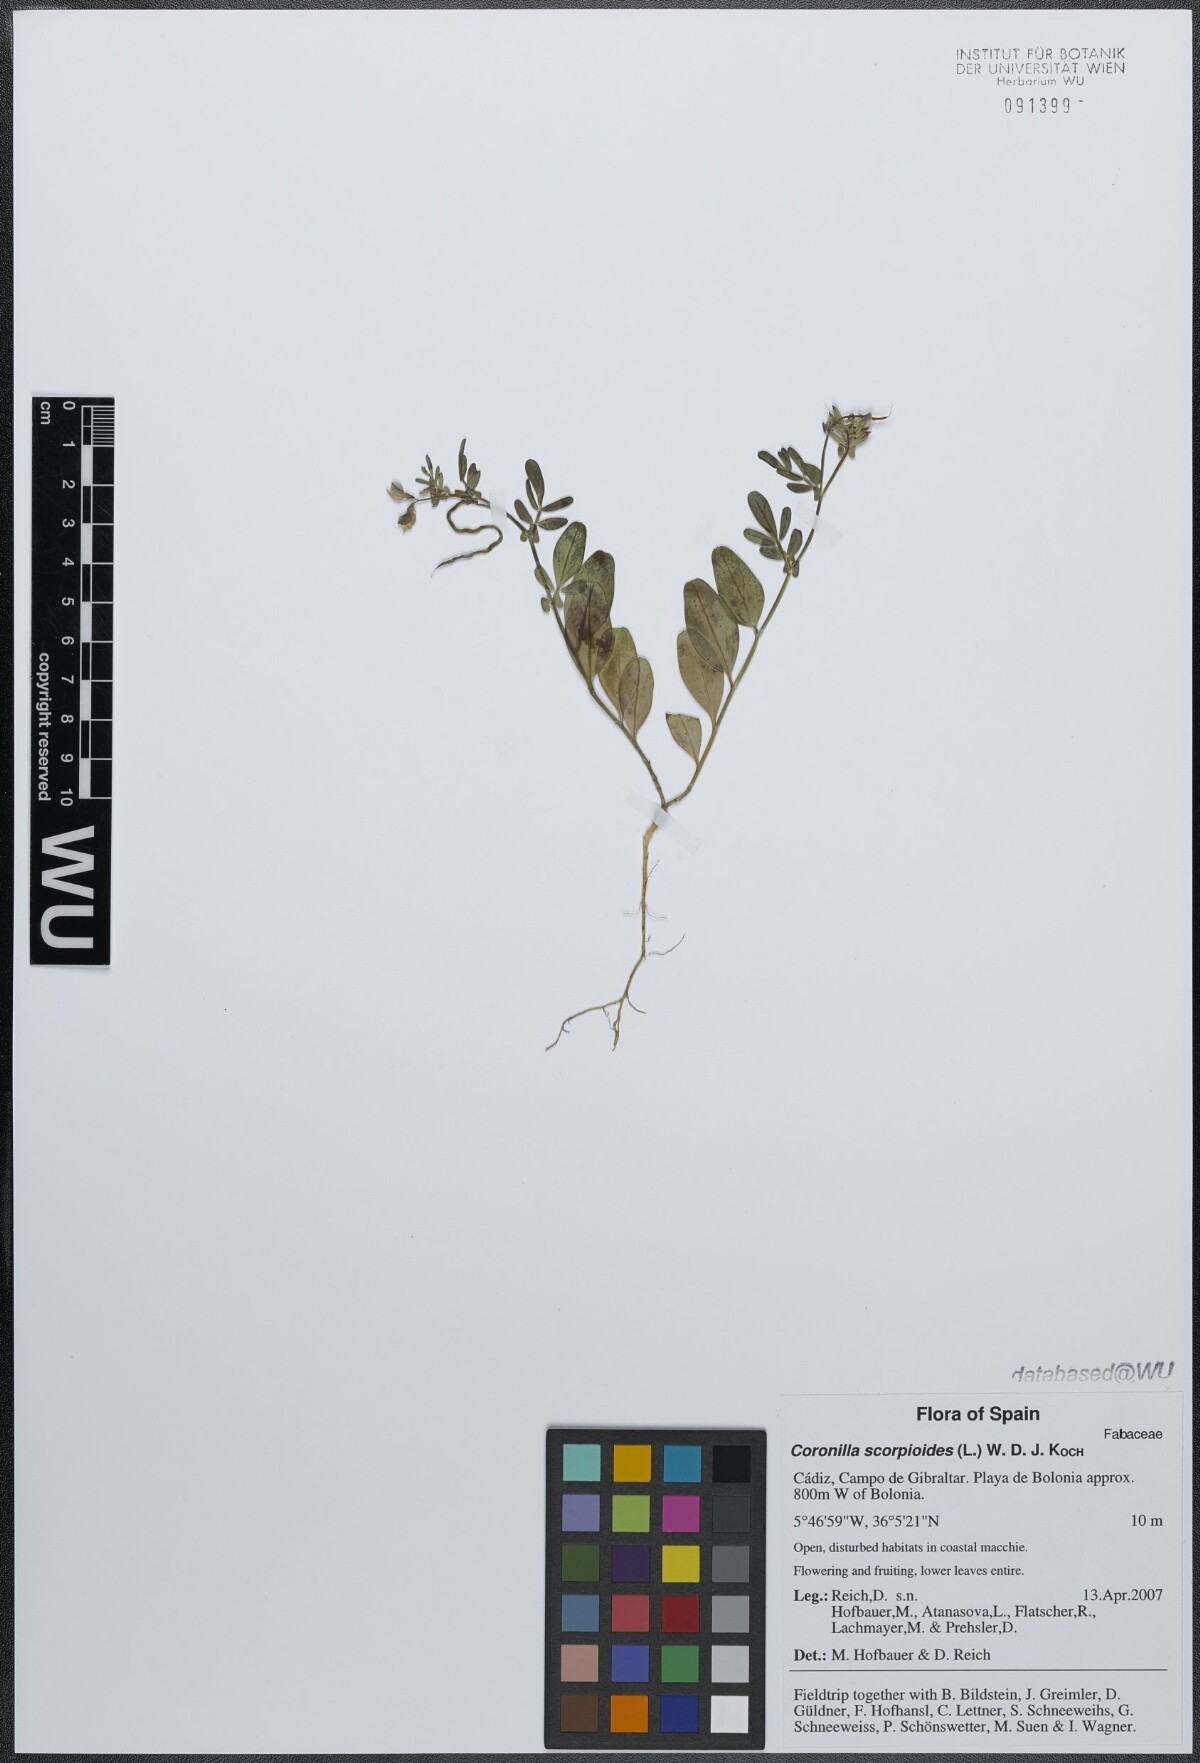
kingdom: Plantae
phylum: Tracheophyta
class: Magnoliopsida
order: Fabales
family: Fabaceae
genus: Coronilla
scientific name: Coronilla scorpioides
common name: Annual scorpion-vetch
